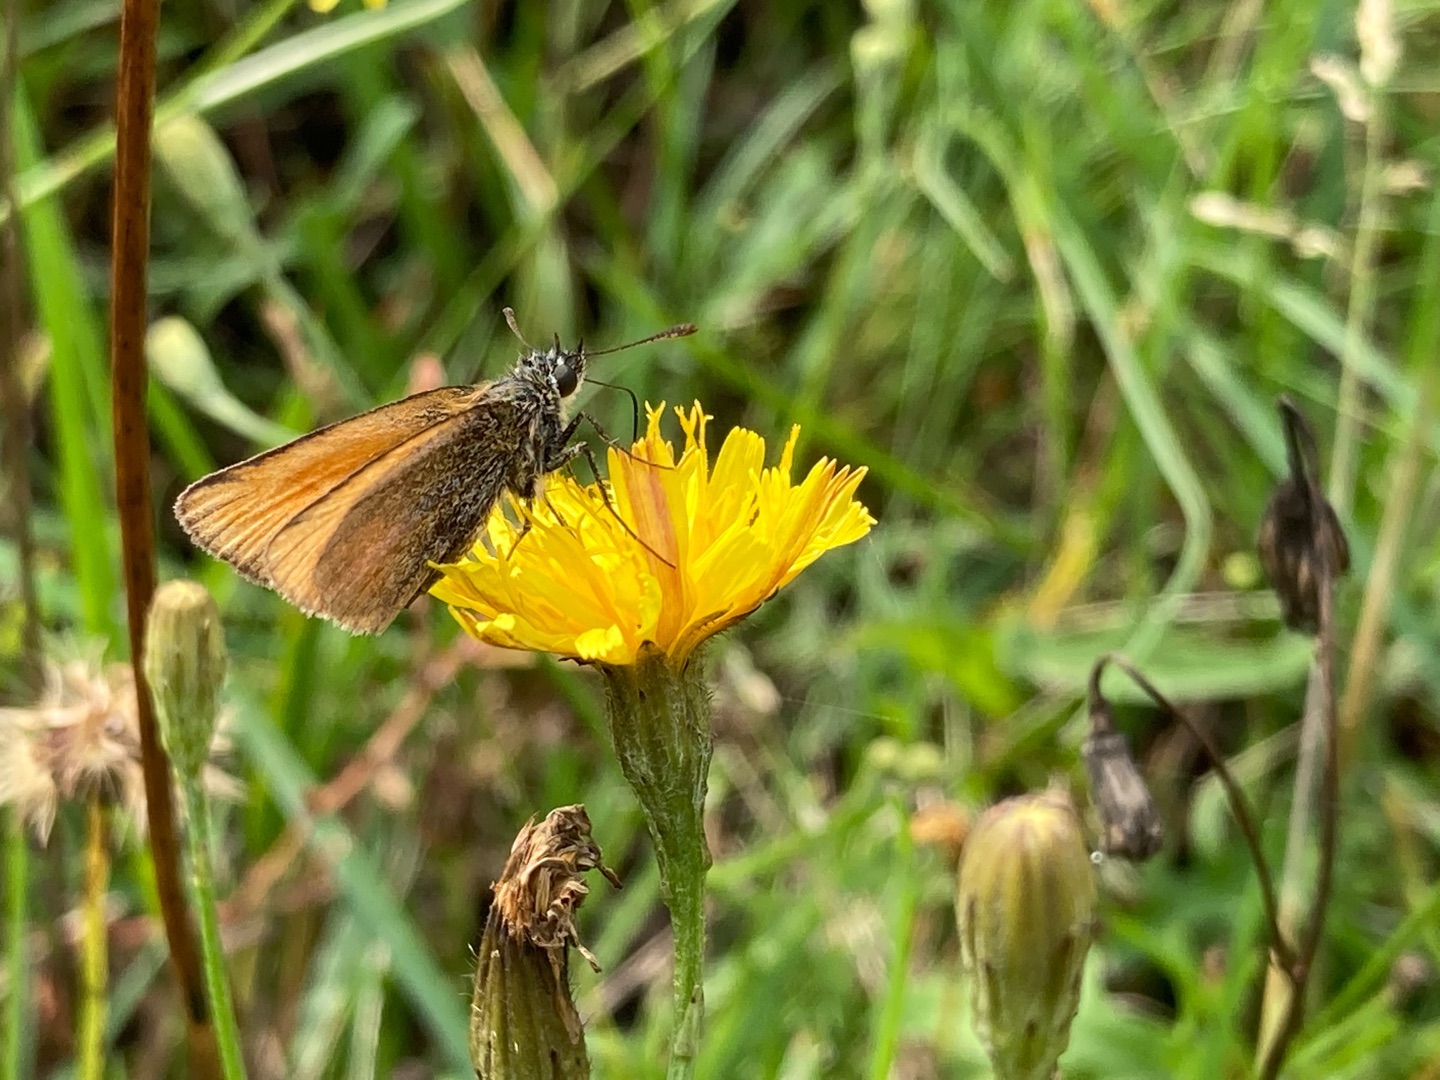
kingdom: Animalia
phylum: Arthropoda
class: Insecta
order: Lepidoptera
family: Hesperiidae
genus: Thymelicus
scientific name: Thymelicus lineola
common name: Stregbredpande
